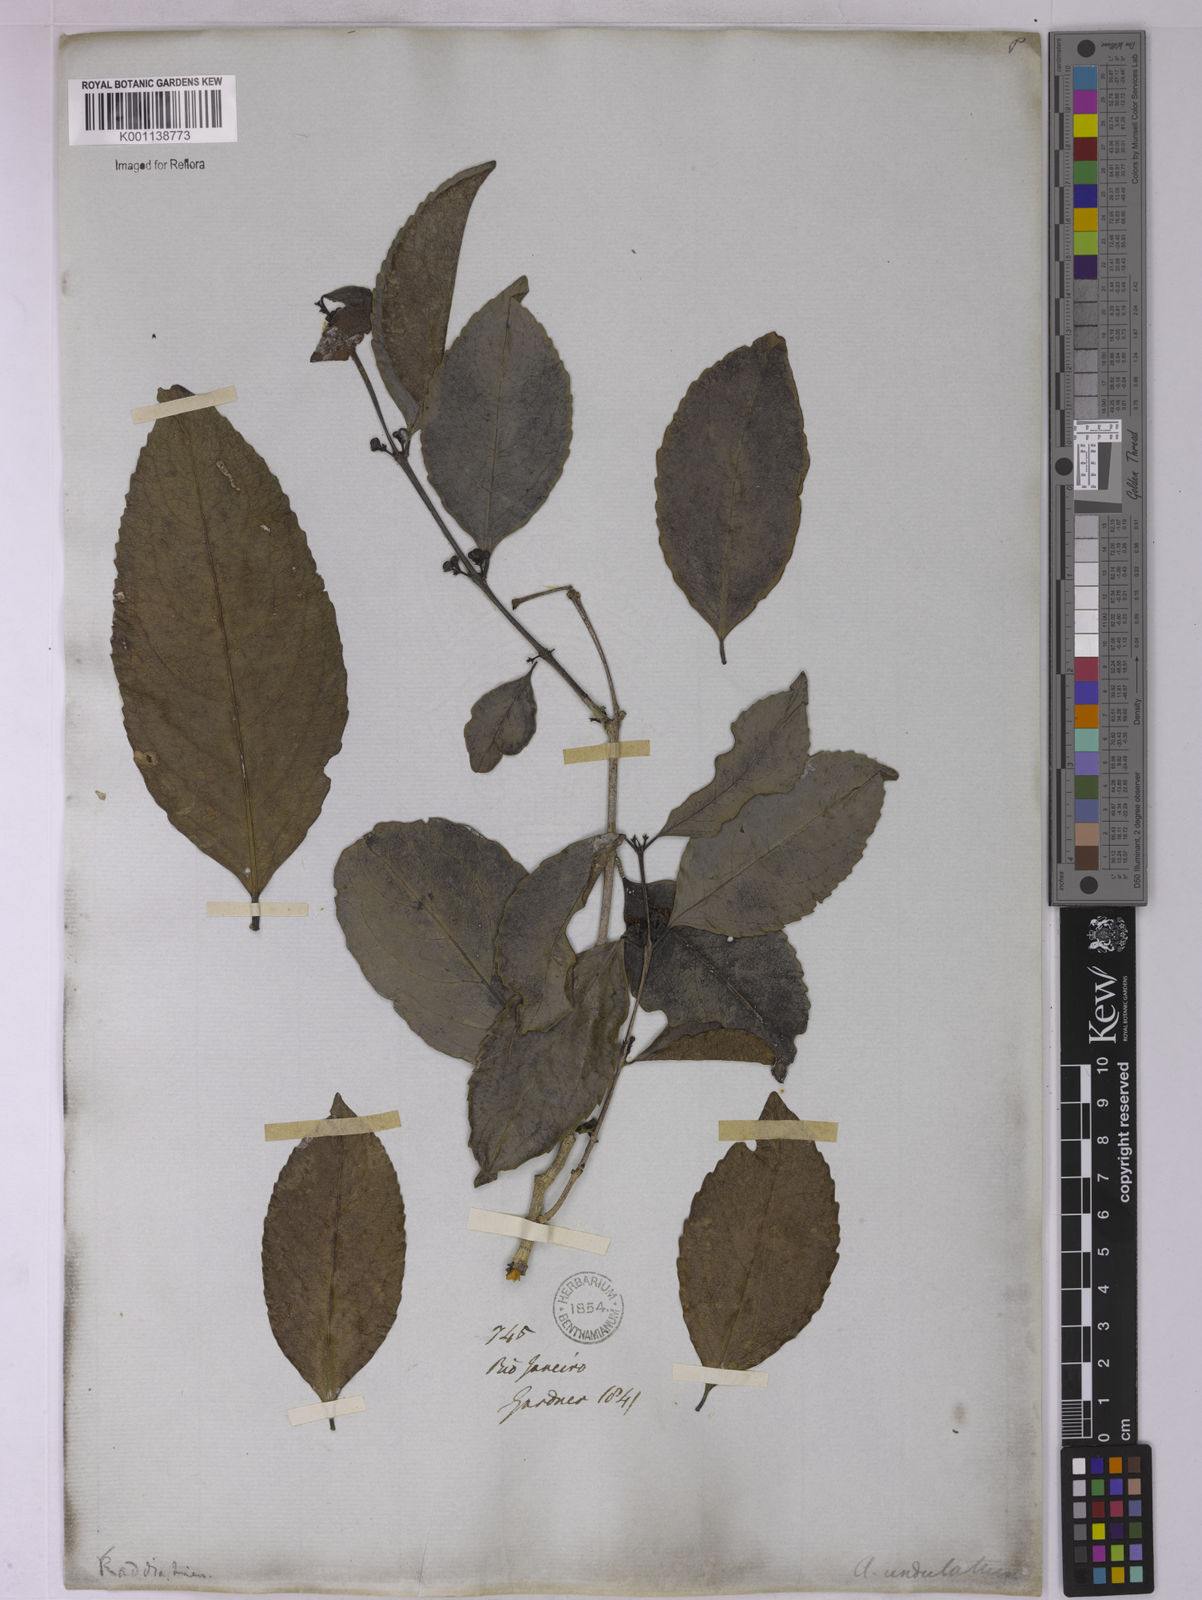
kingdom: Plantae
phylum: Tracheophyta
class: Magnoliopsida
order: Celastrales
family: Celastraceae
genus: Salacia
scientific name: Salacia arborea
